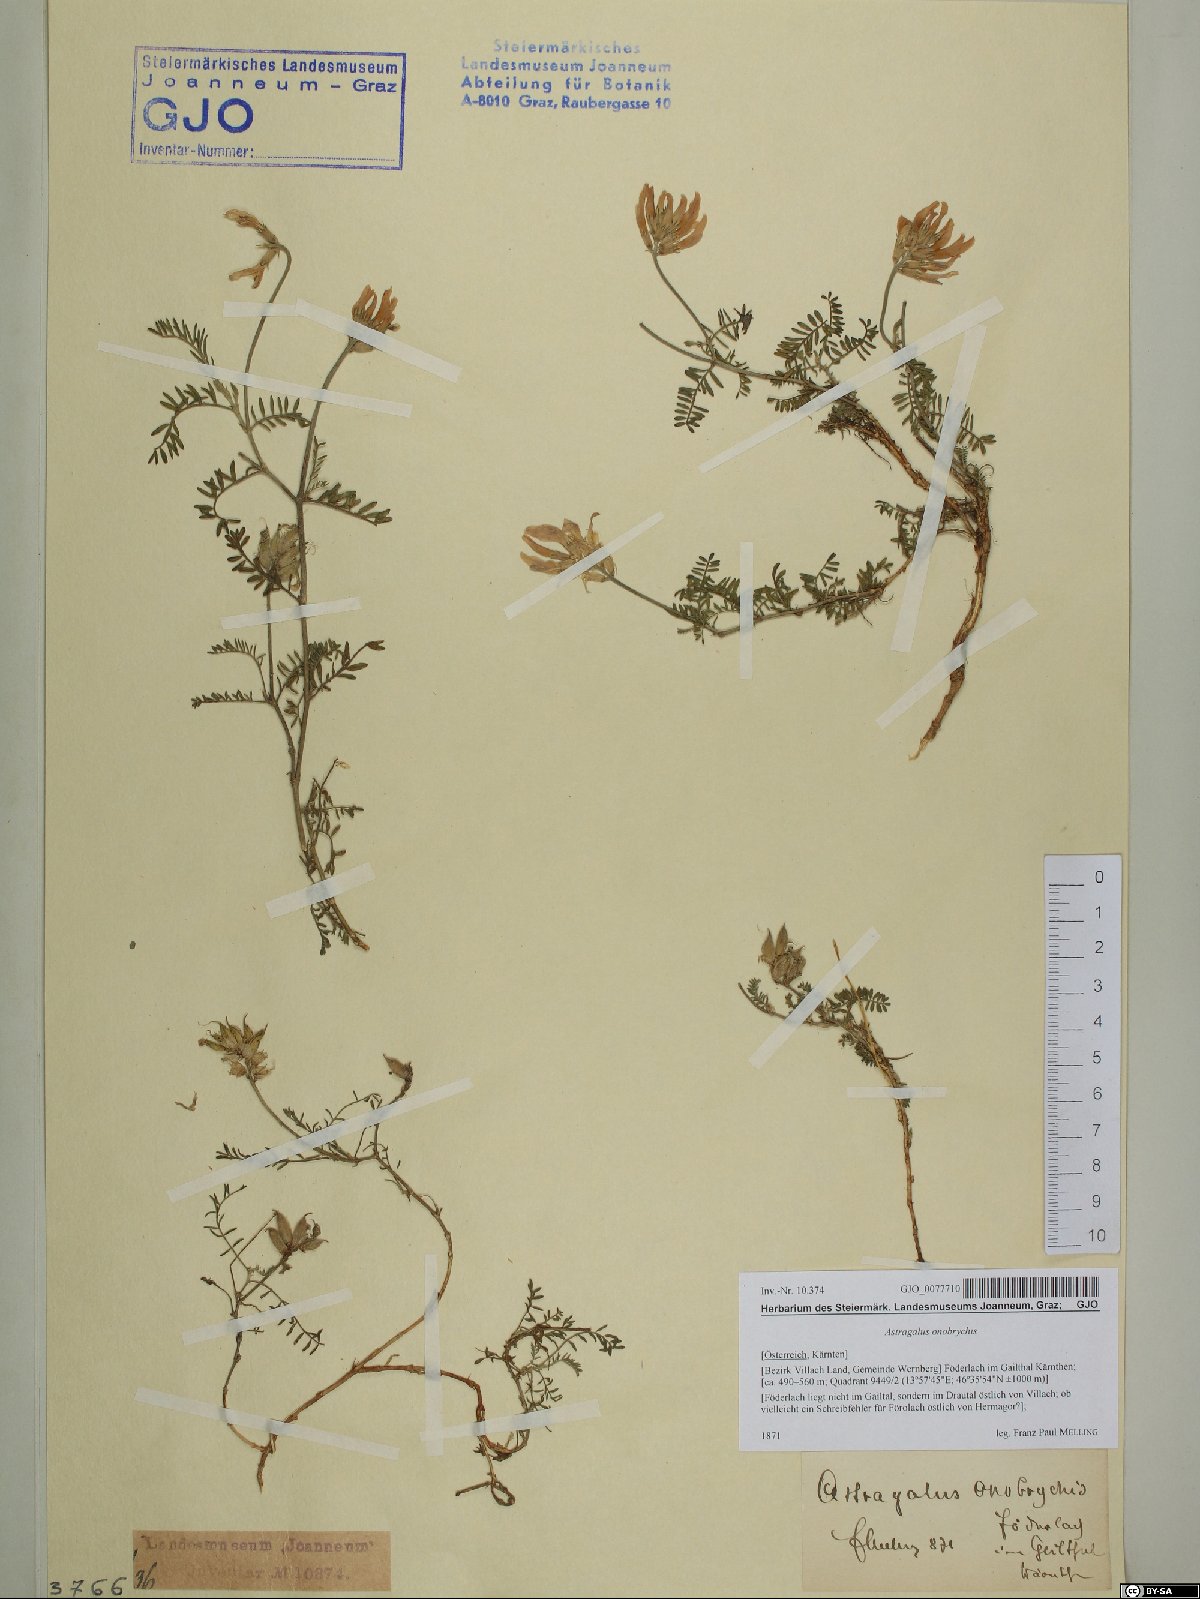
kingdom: Plantae
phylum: Tracheophyta
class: Magnoliopsida
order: Fabales
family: Fabaceae
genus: Astragalus
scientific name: Astragalus onobrychis
